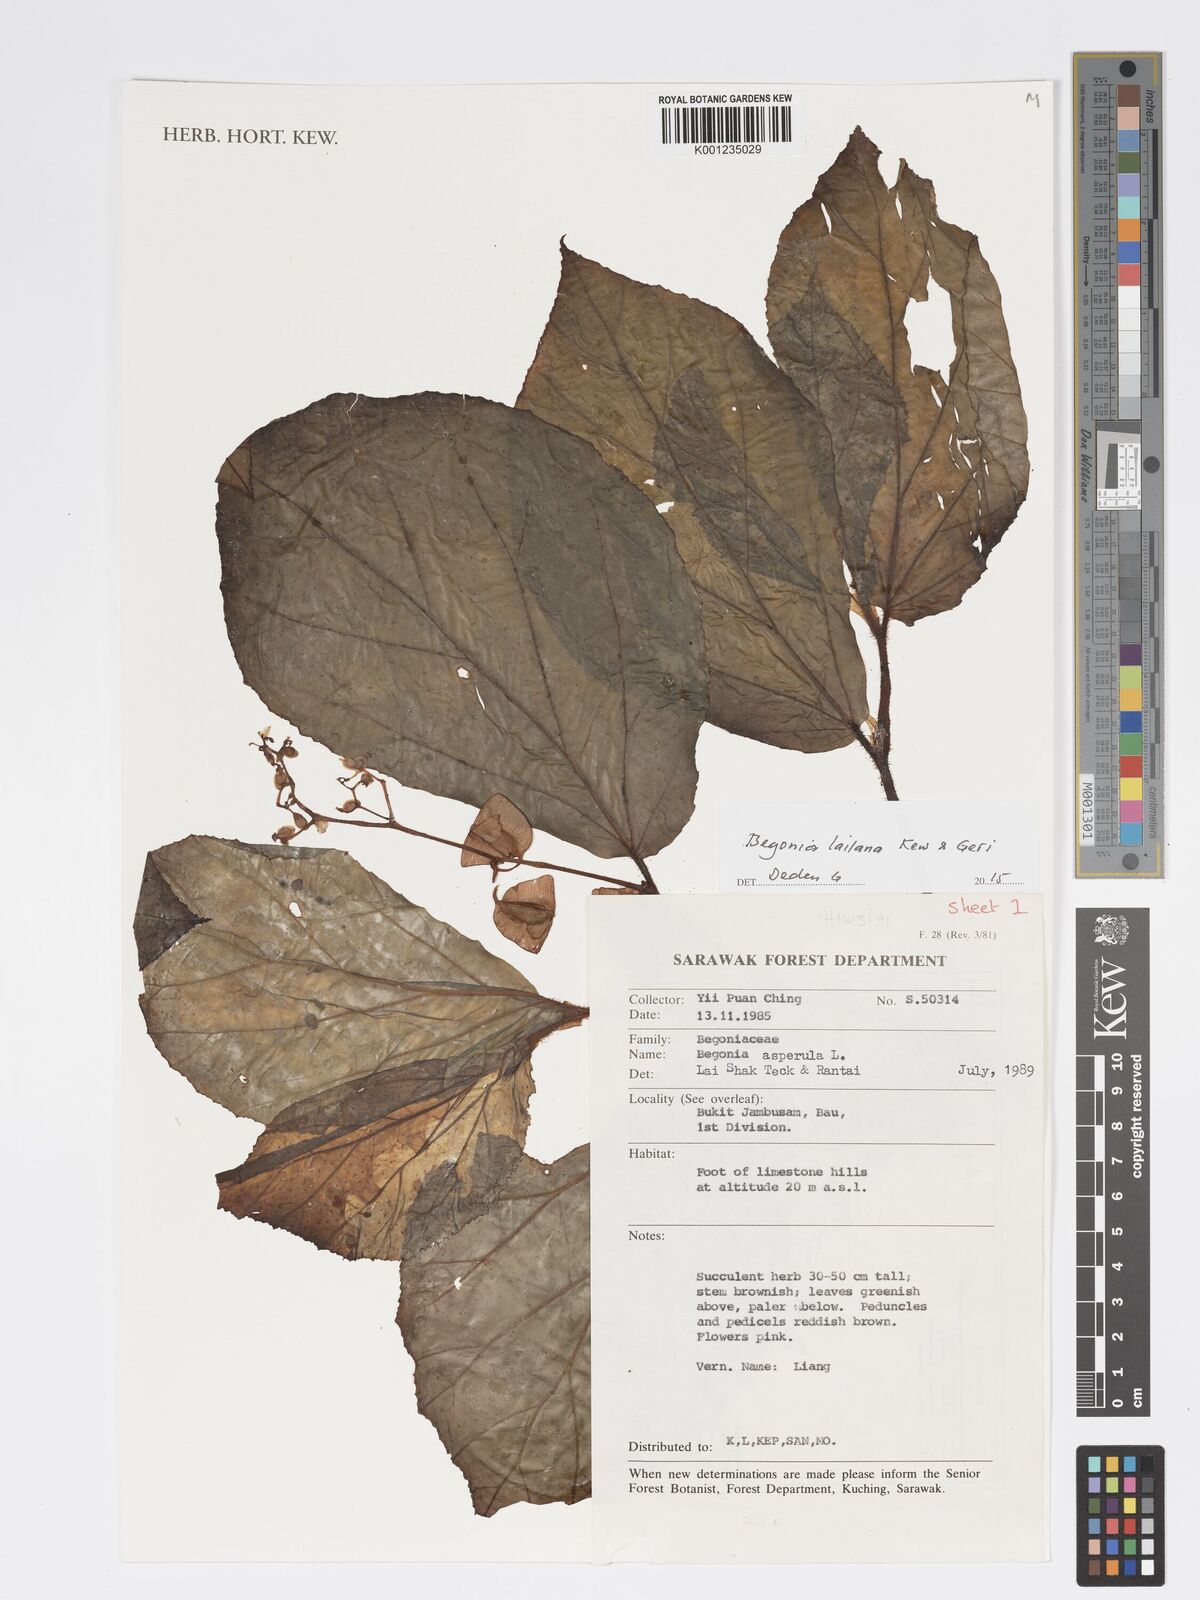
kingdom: Plantae
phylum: Tracheophyta
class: Magnoliopsida
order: Cucurbitales
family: Begoniaceae
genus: Begonia
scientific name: Begonia lailana
